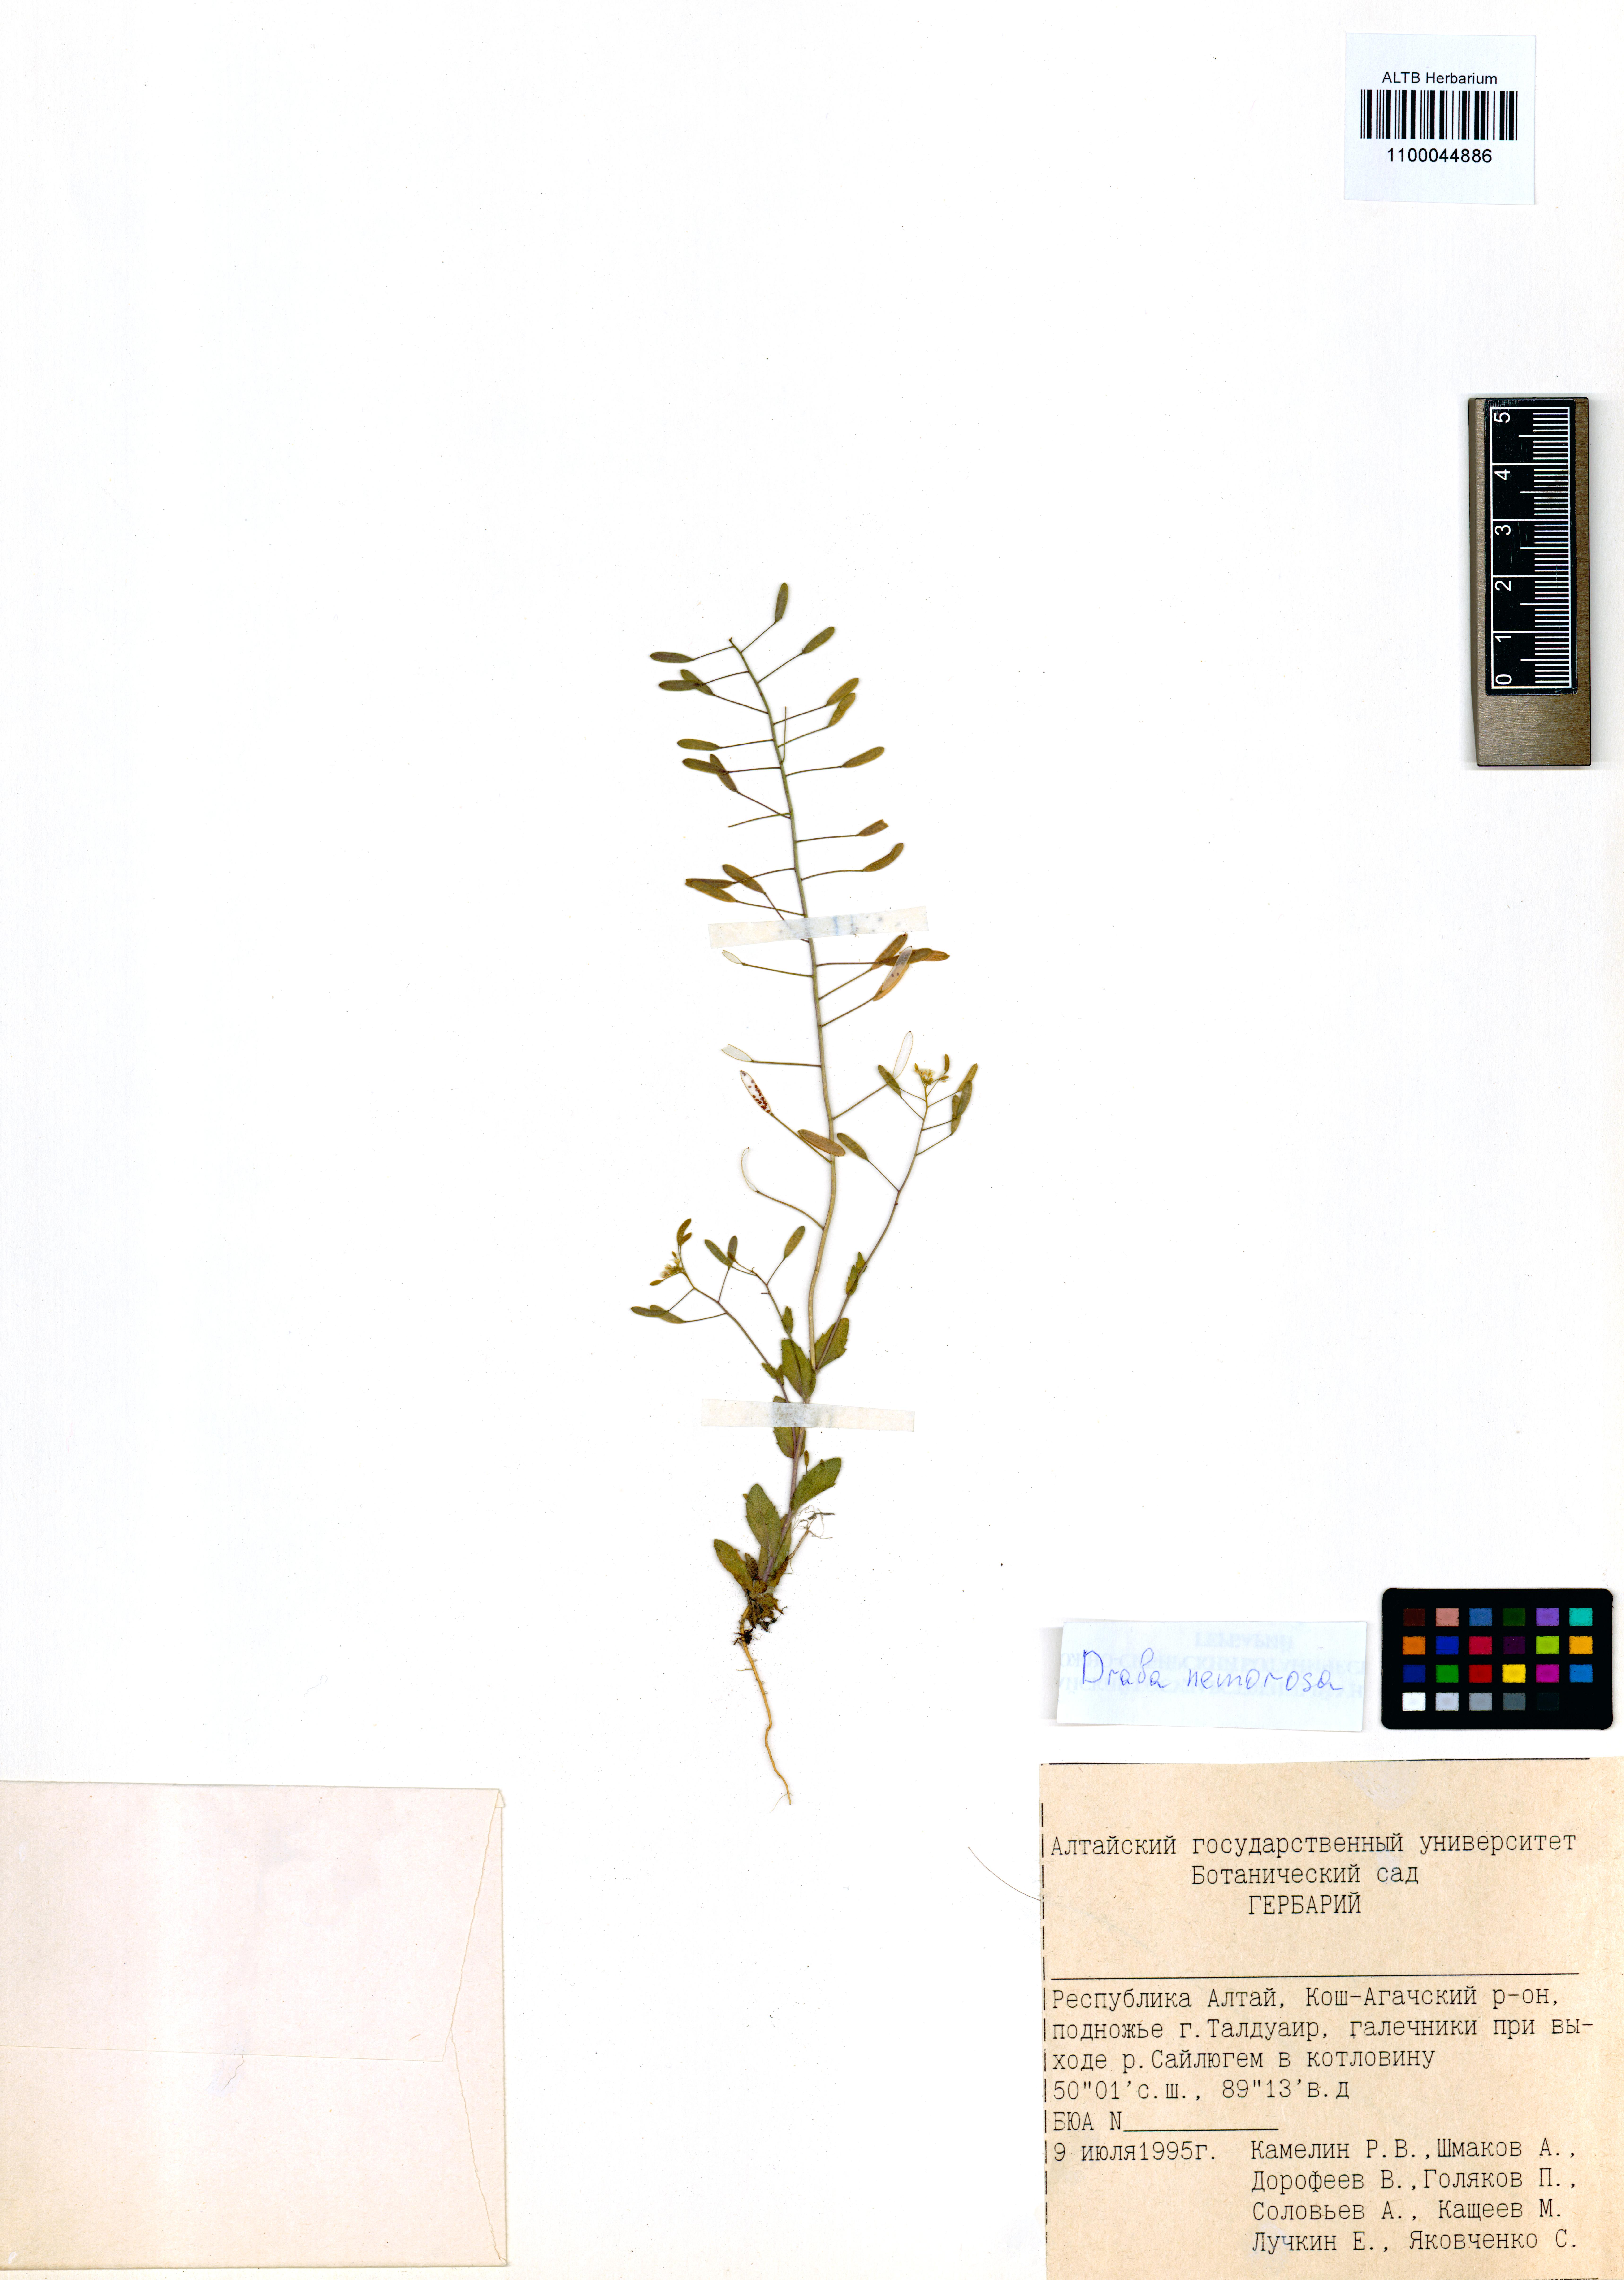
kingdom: Plantae
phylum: Tracheophyta
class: Magnoliopsida
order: Brassicales
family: Brassicaceae
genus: Draba
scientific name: Draba nemorosa
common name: Wood whitlow-grass
